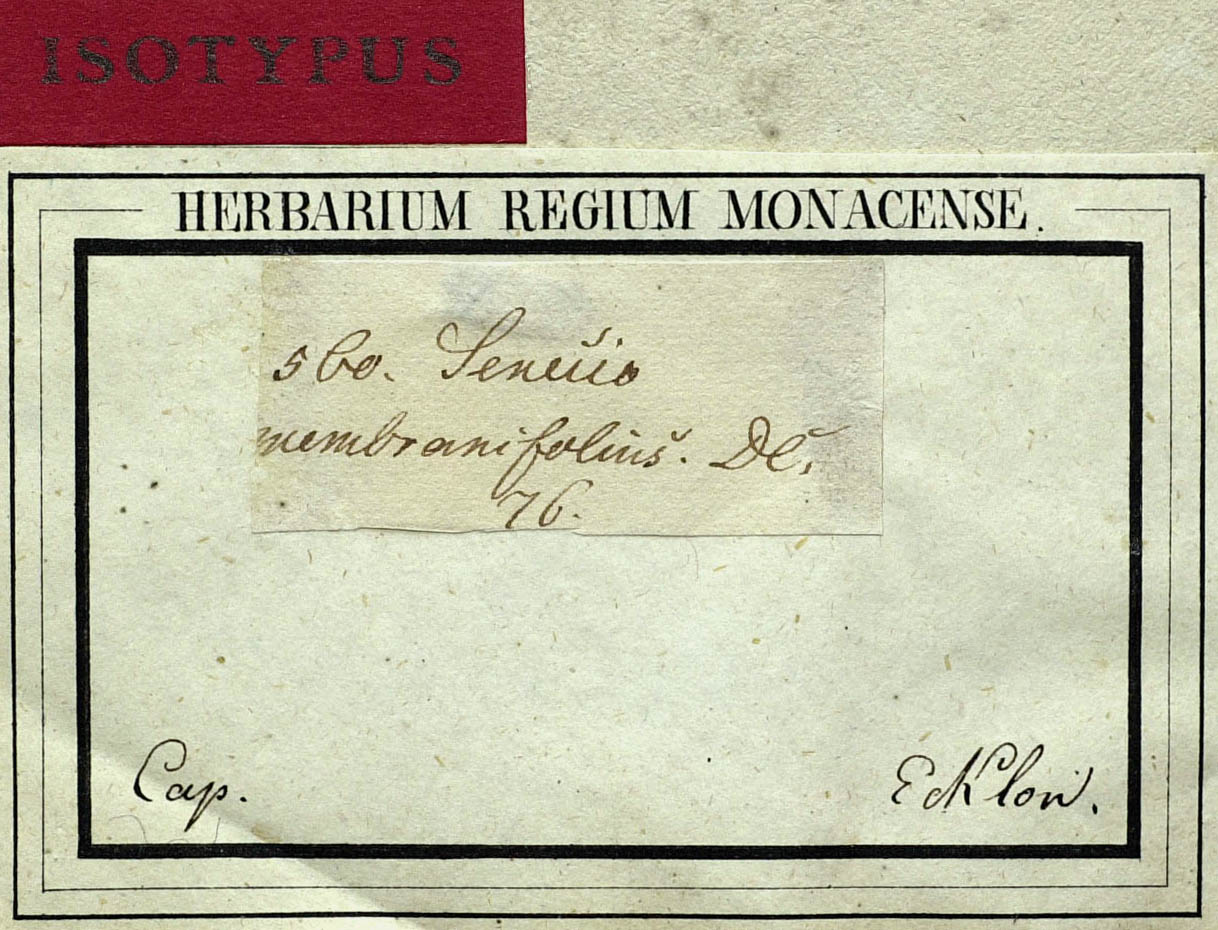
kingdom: Plantae
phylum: Tracheophyta
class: Magnoliopsida
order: Asterales
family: Asteraceae
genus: Senecio
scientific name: Senecio repandus
